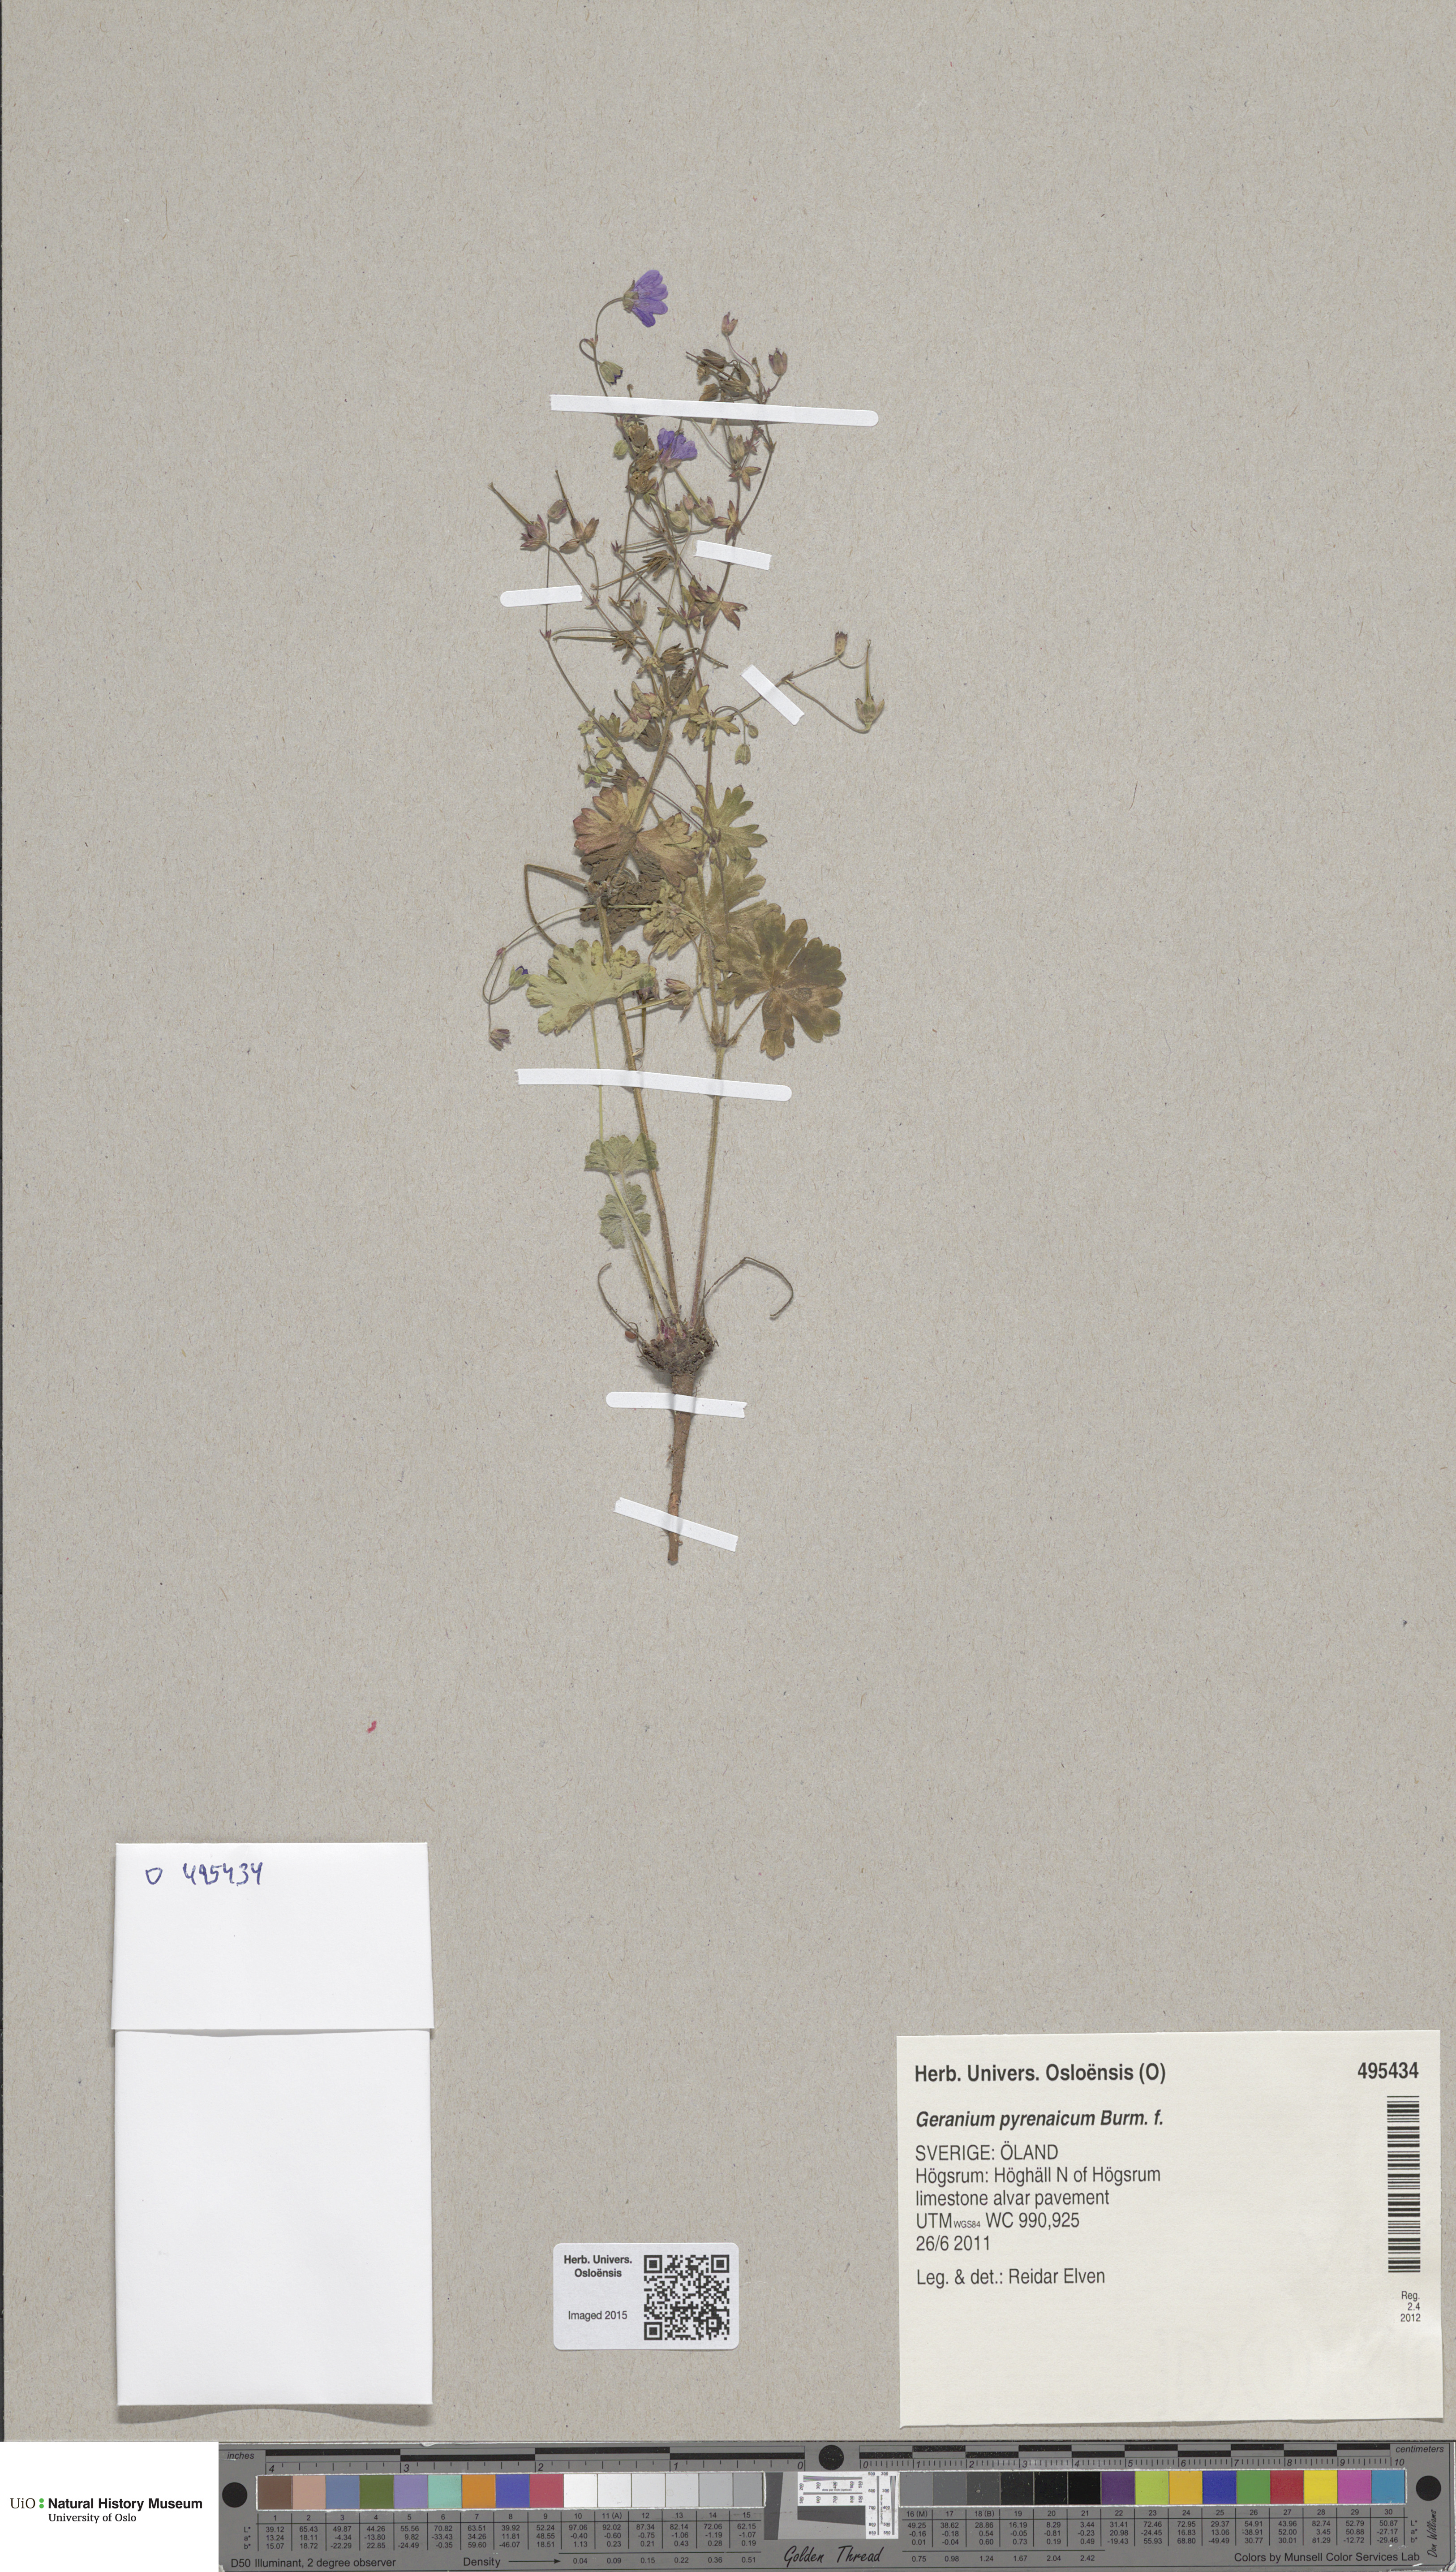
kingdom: Plantae
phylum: Tracheophyta
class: Magnoliopsida
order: Geraniales
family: Geraniaceae
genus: Geranium
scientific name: Geranium pyrenaicum
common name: Hedgerow crane's-bill
